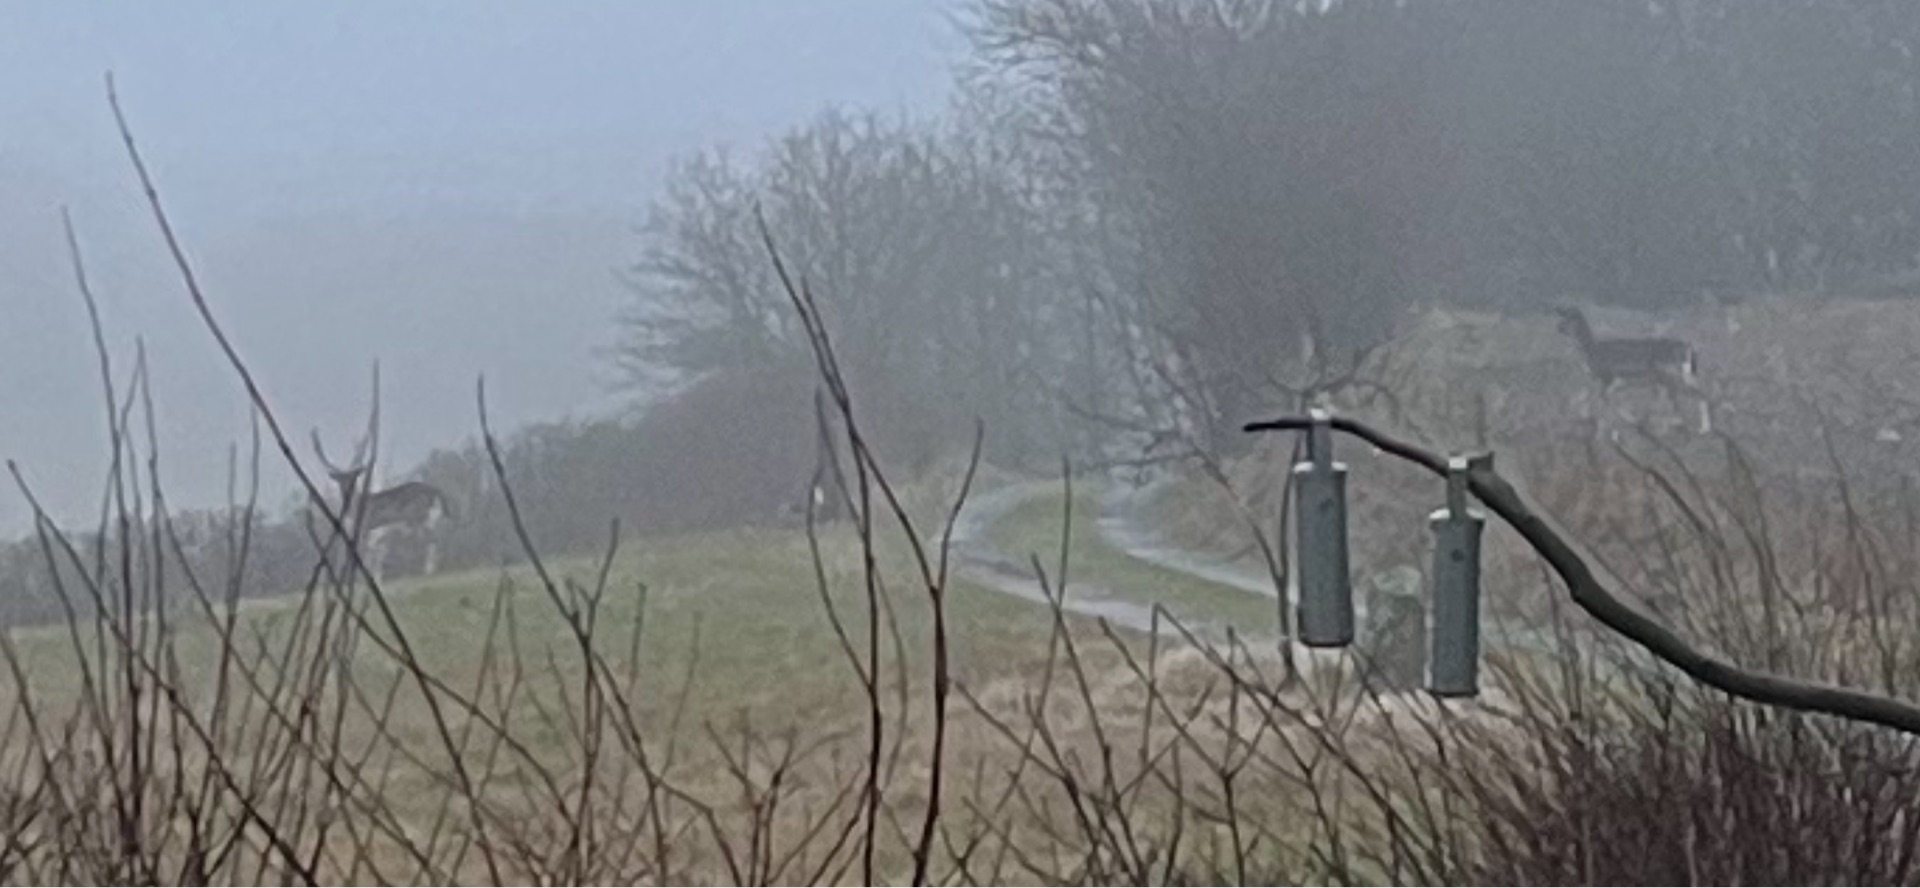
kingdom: Animalia
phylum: Chordata
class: Mammalia
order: Artiodactyla
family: Cervidae
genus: Dama
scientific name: Dama dama
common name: Dådyr
